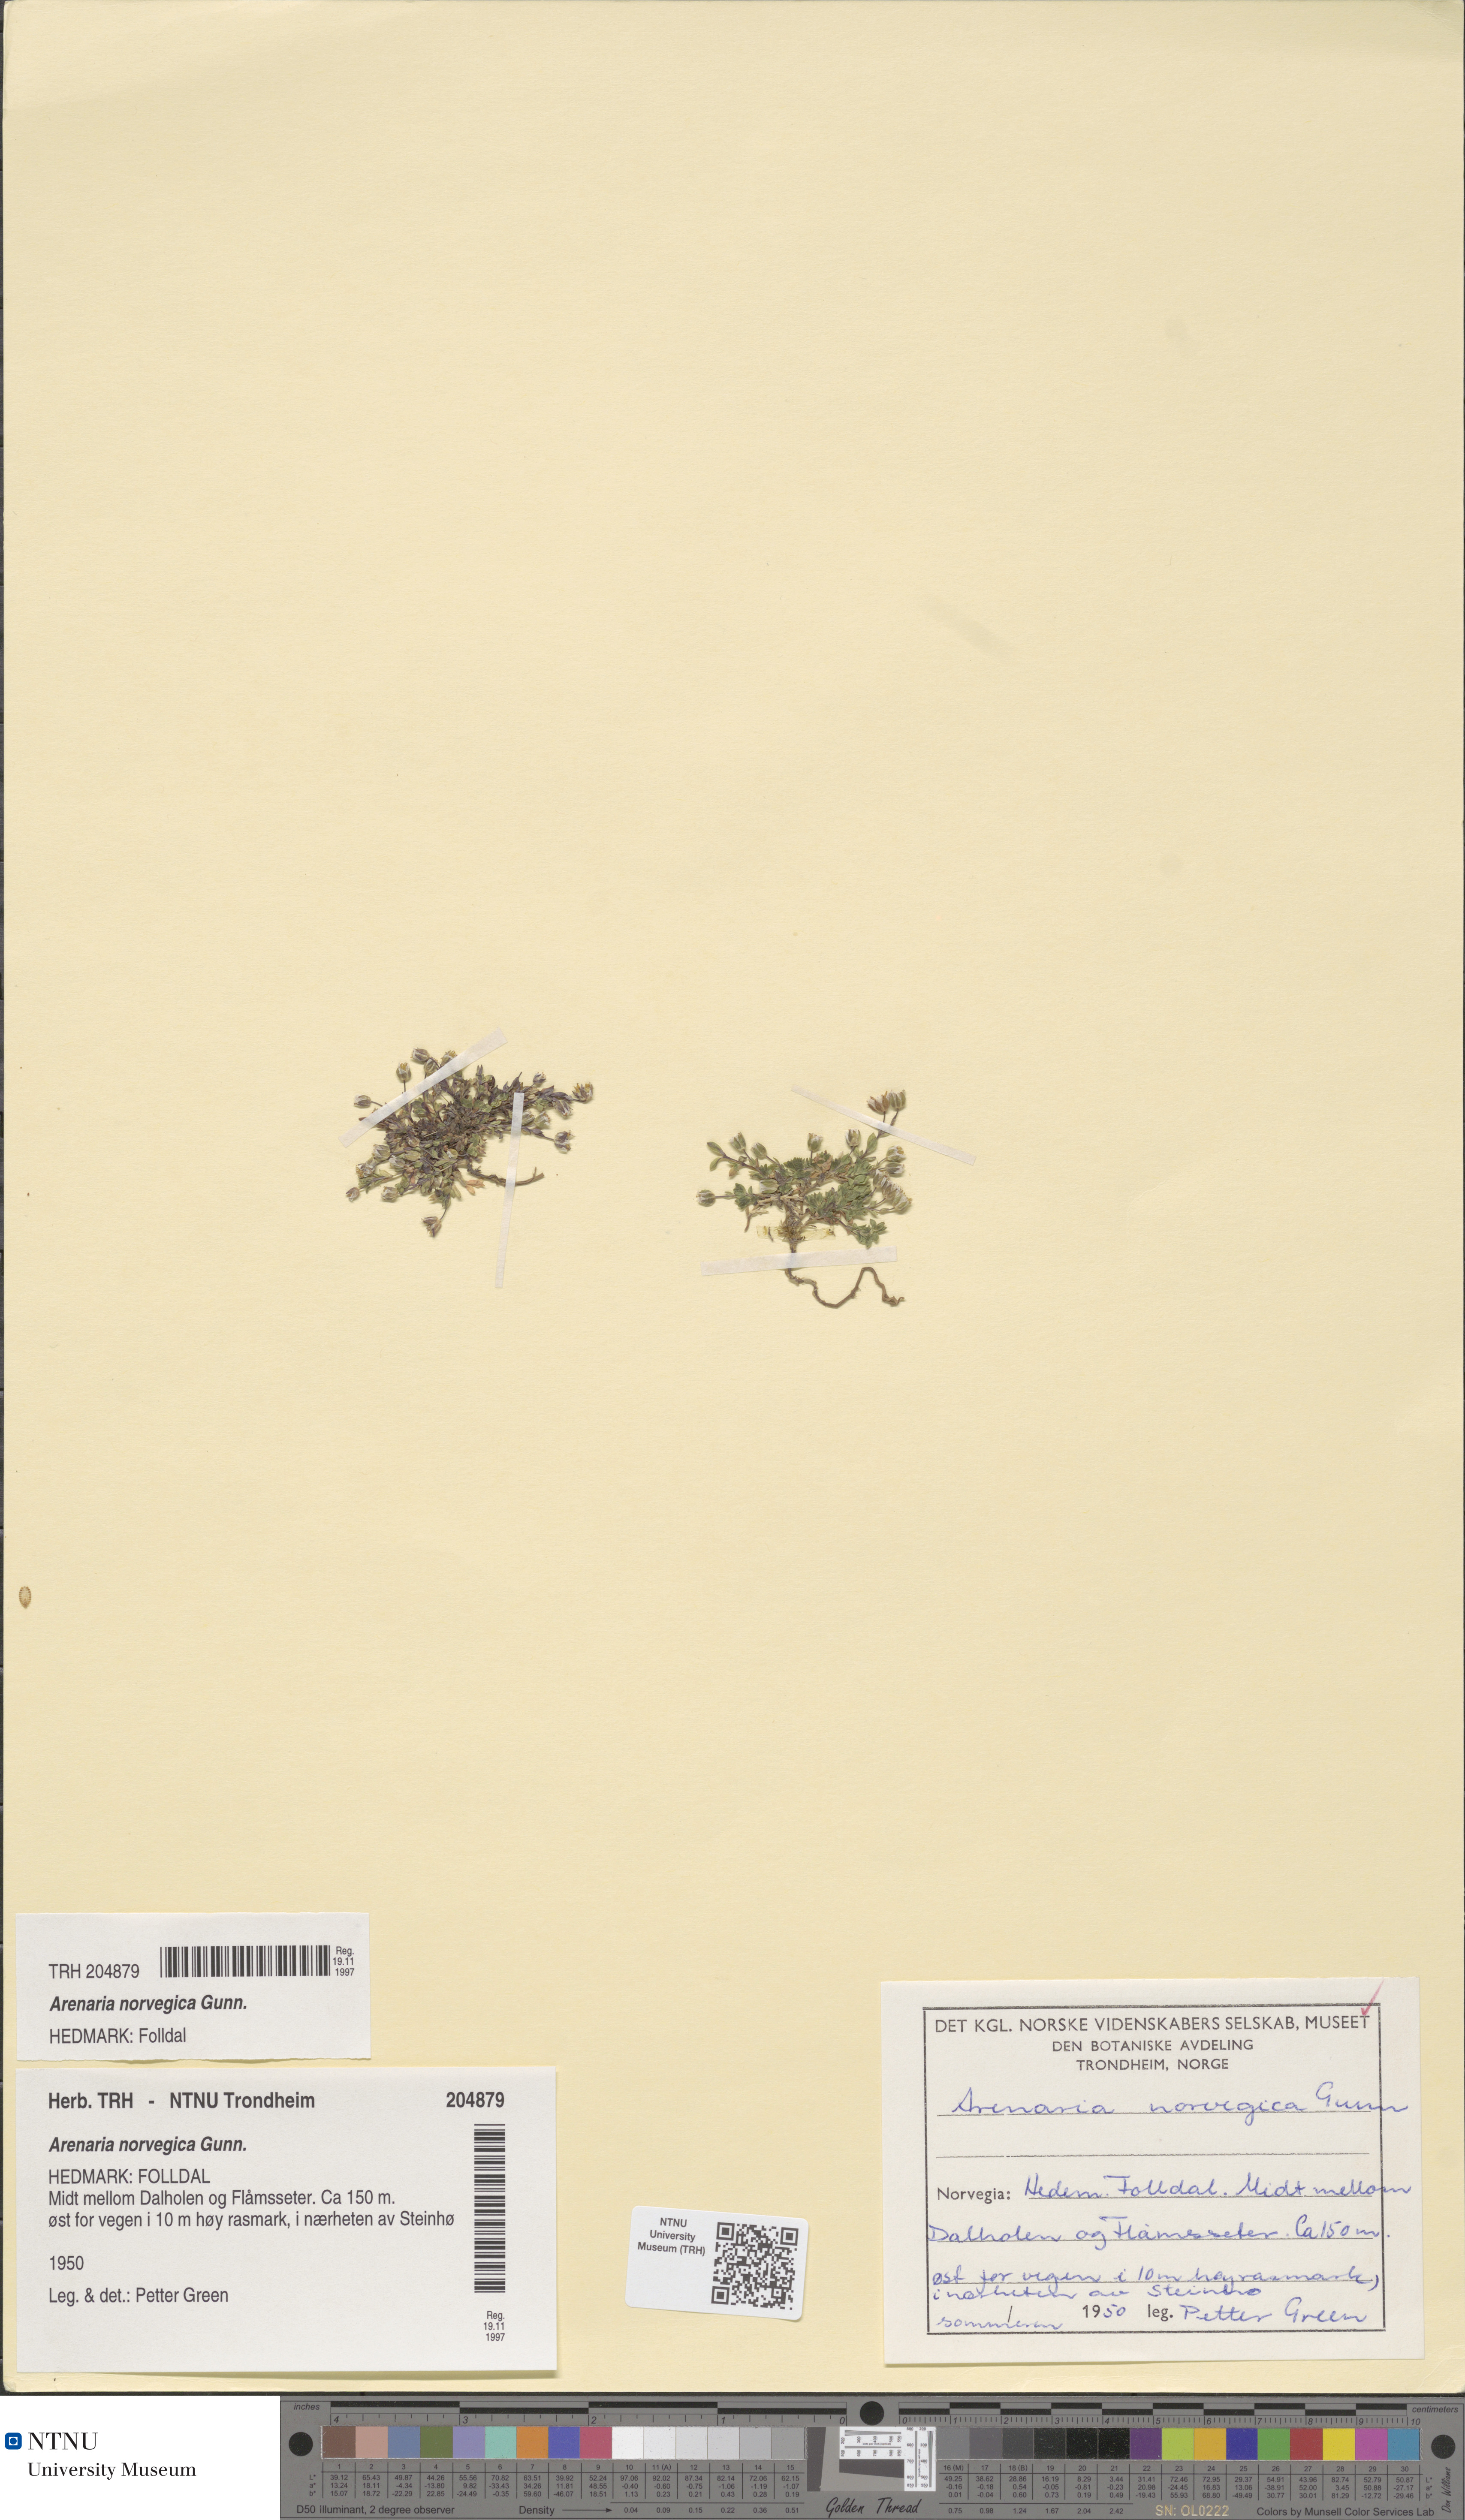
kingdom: Plantae
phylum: Tracheophyta
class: Magnoliopsida
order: Caryophyllales
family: Caryophyllaceae
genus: Arenaria
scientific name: Arenaria norvegica
